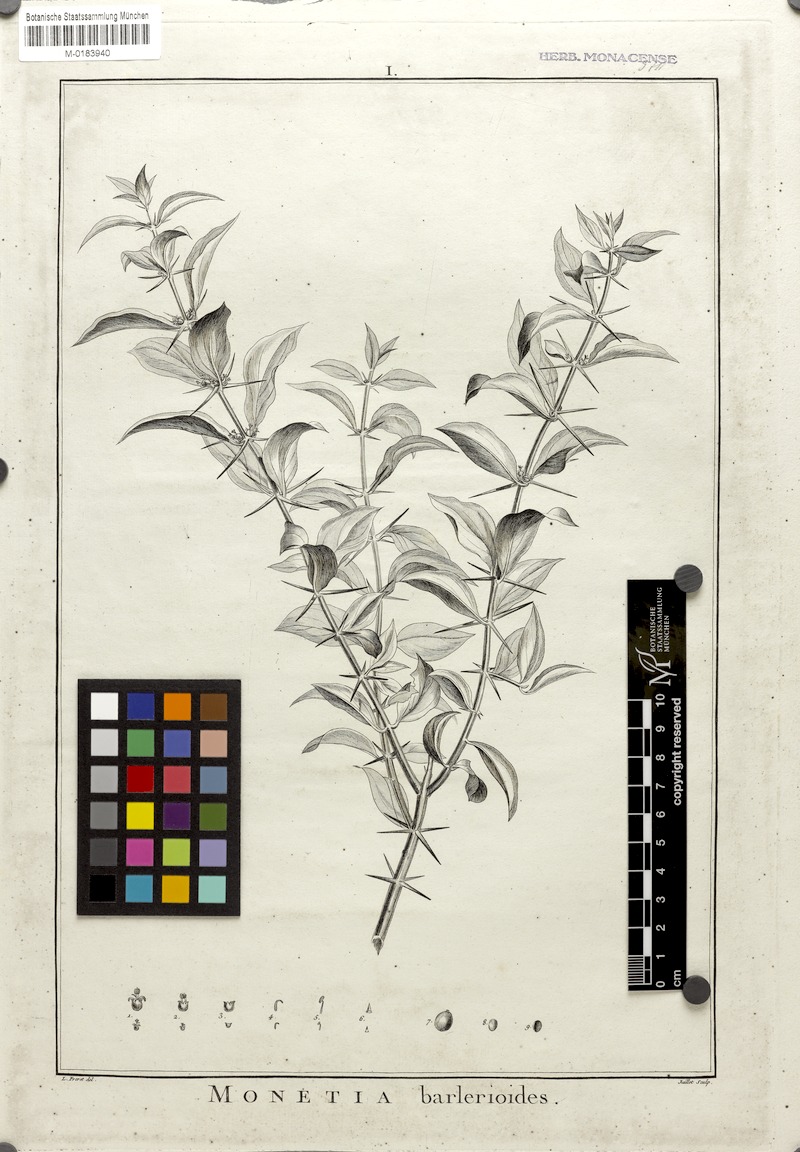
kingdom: Plantae
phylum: Tracheophyta
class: Magnoliopsida
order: Brassicales
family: Salvadoraceae
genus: Azima
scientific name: Azima tetracantha
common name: Needle bush
